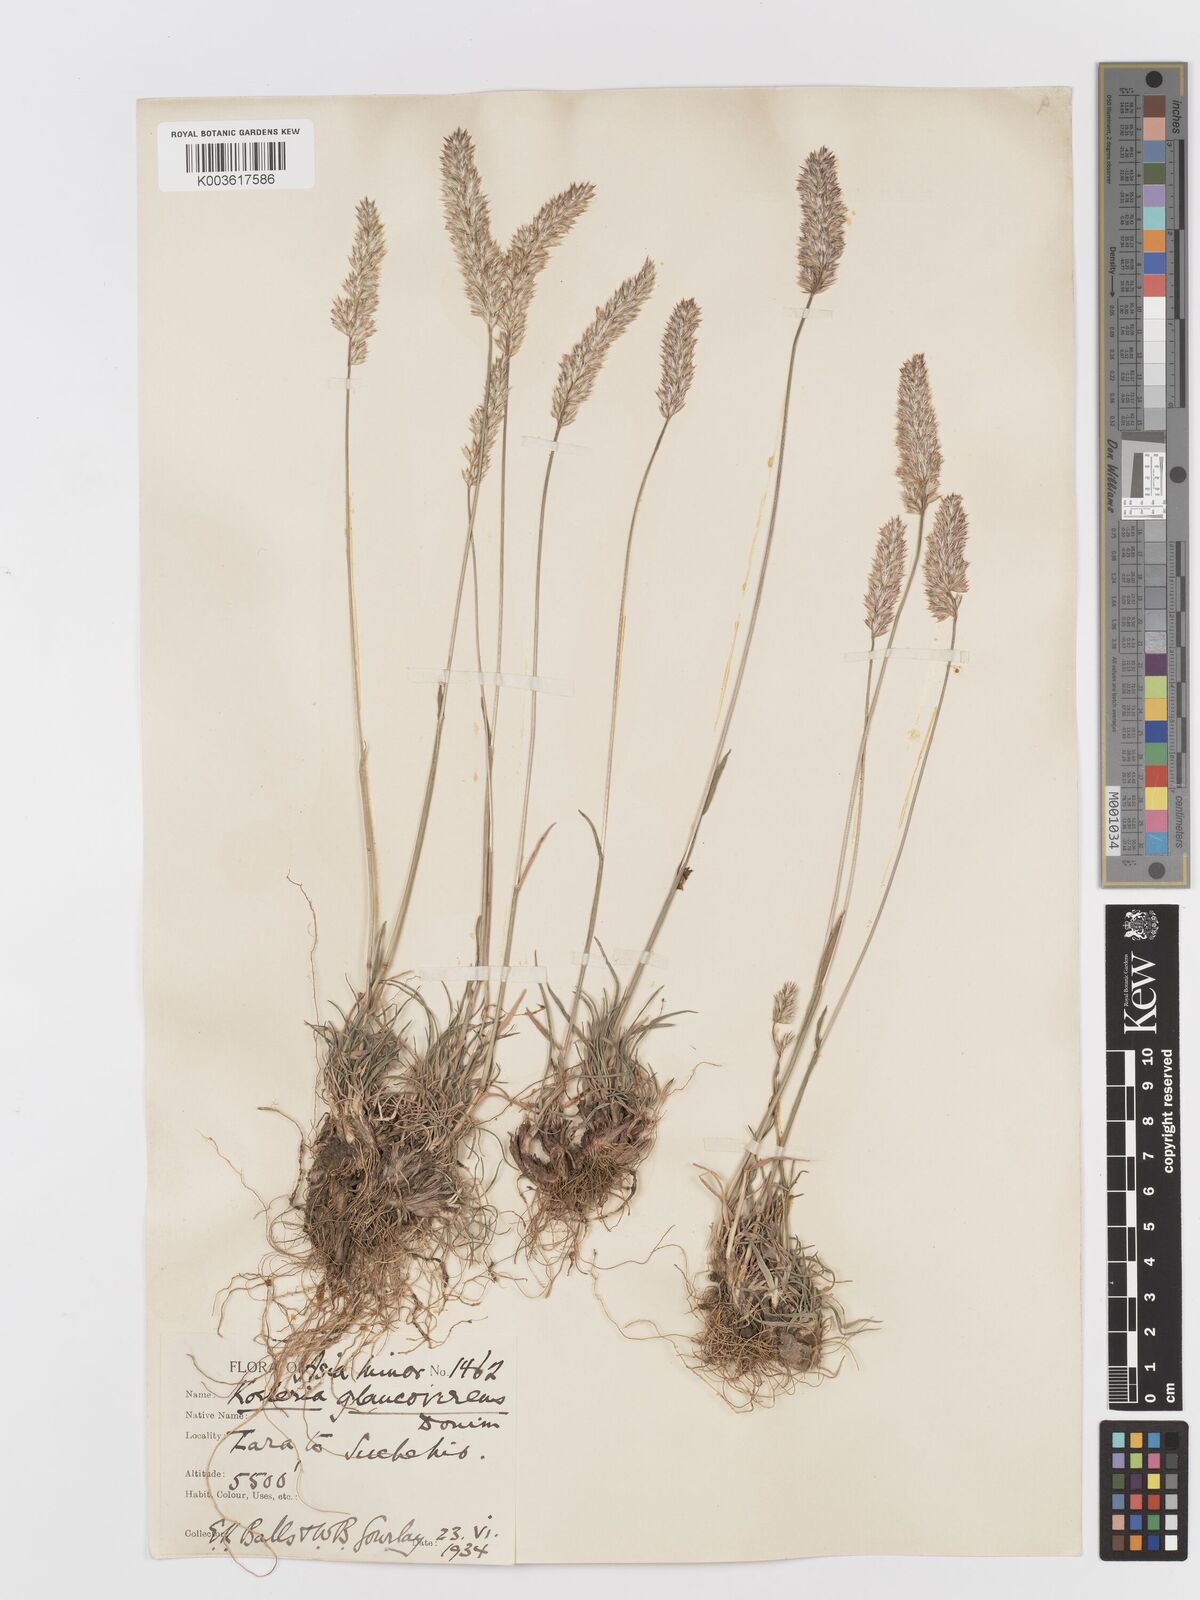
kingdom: Plantae
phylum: Tracheophyta
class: Liliopsida
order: Poales
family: Poaceae
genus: Koeleria
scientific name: Koeleria macrantha
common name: Crested hair-grass
